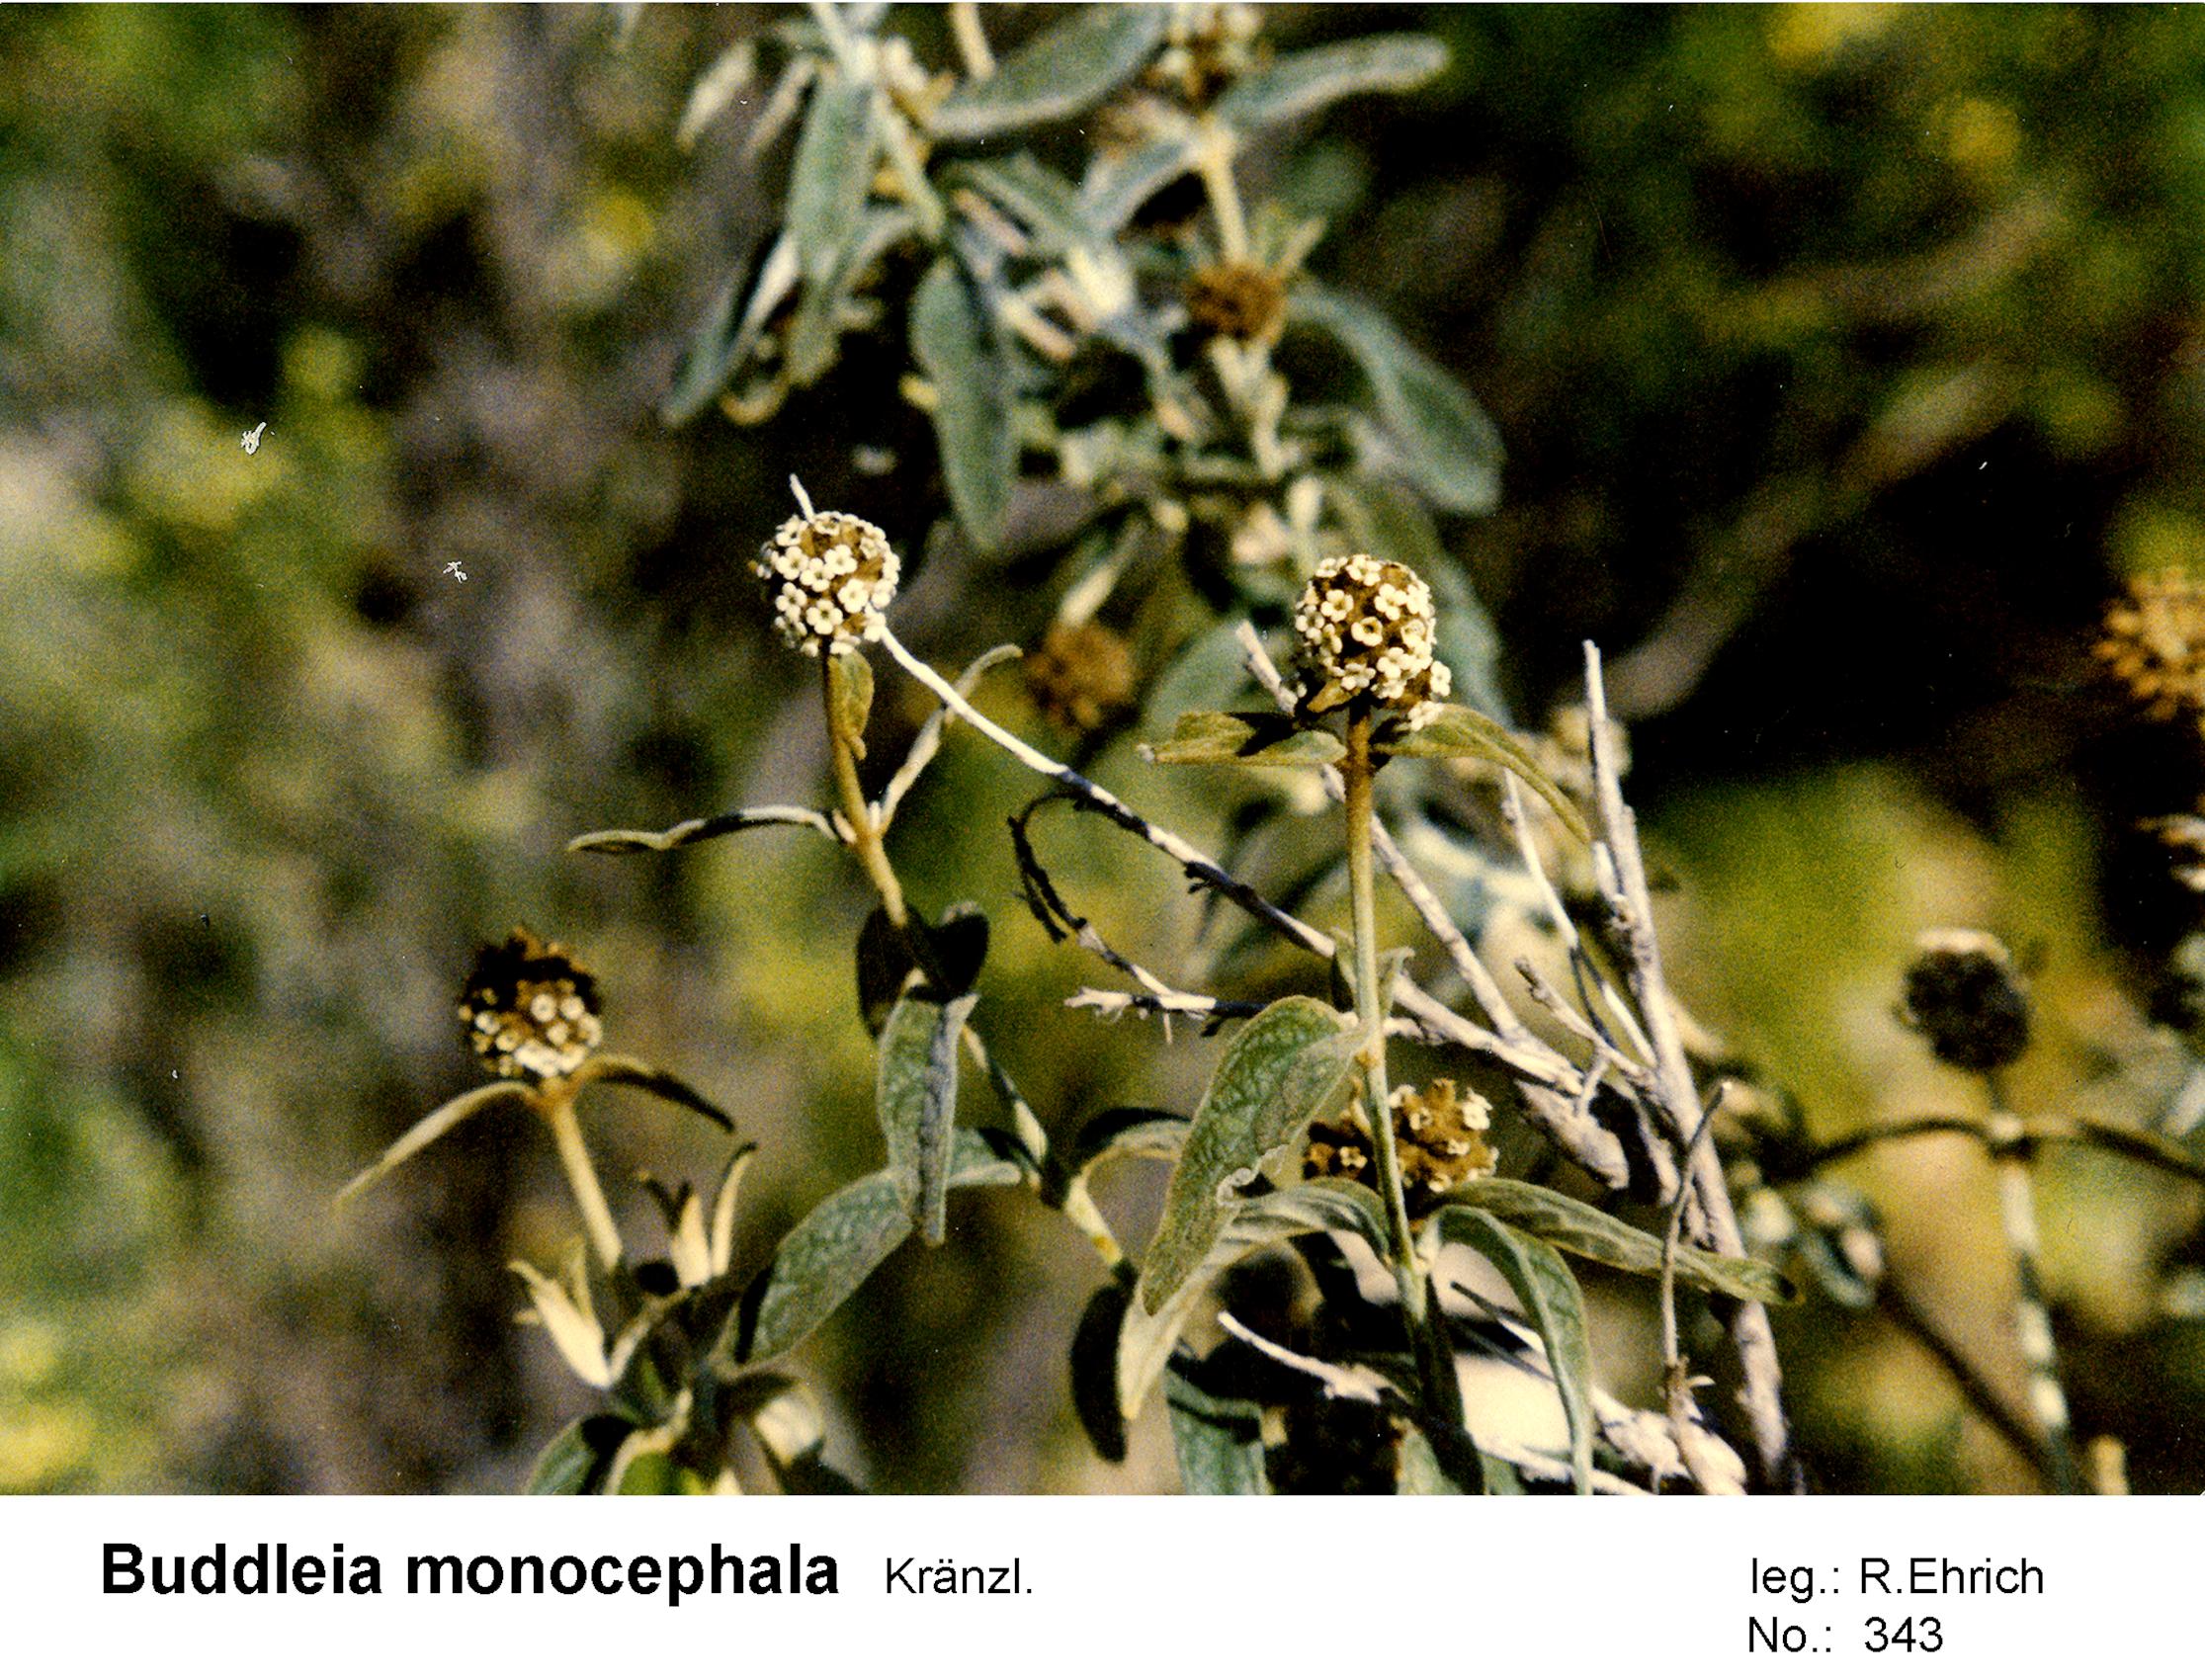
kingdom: Plantae
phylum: Tracheophyta
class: Magnoliopsida
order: Lamiales
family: Scrophulariaceae
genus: Buddleja
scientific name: Buddleja aromatica
